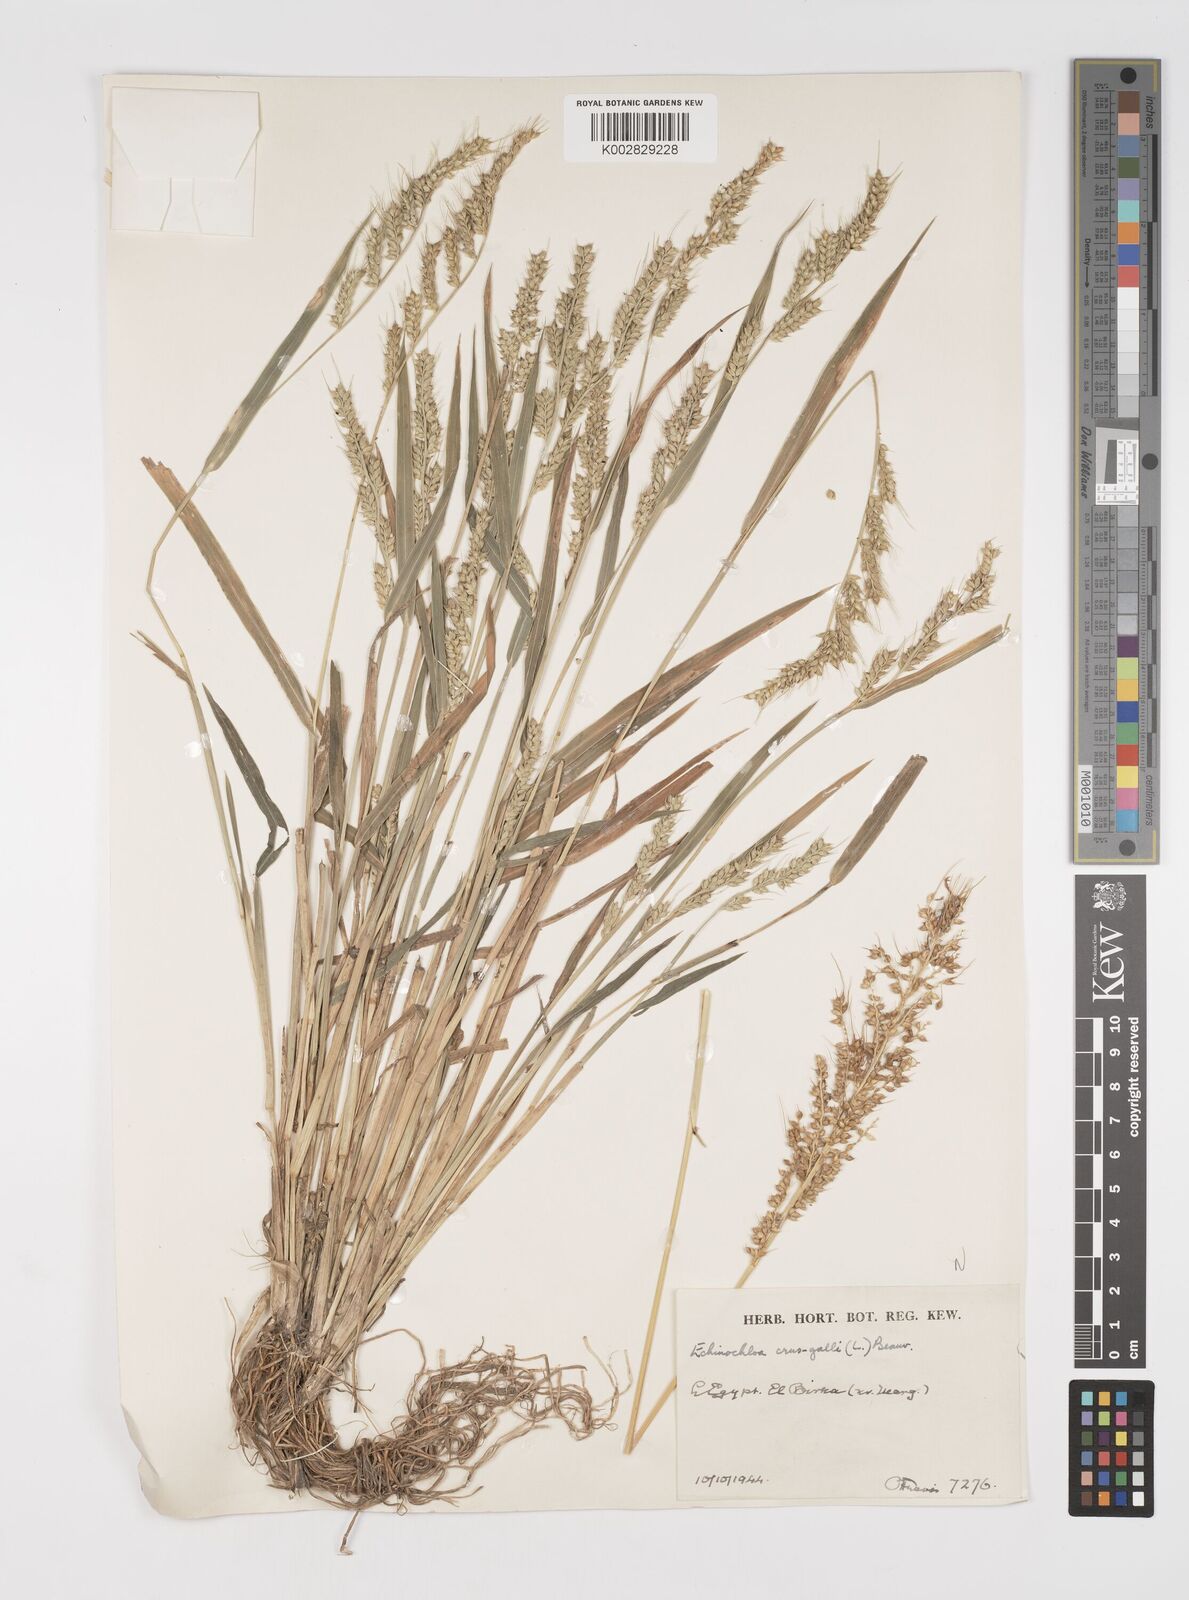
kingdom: Plantae
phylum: Tracheophyta
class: Liliopsida
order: Poales
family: Poaceae
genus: Echinochloa
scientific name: Echinochloa crus-galli
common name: Cockspur
